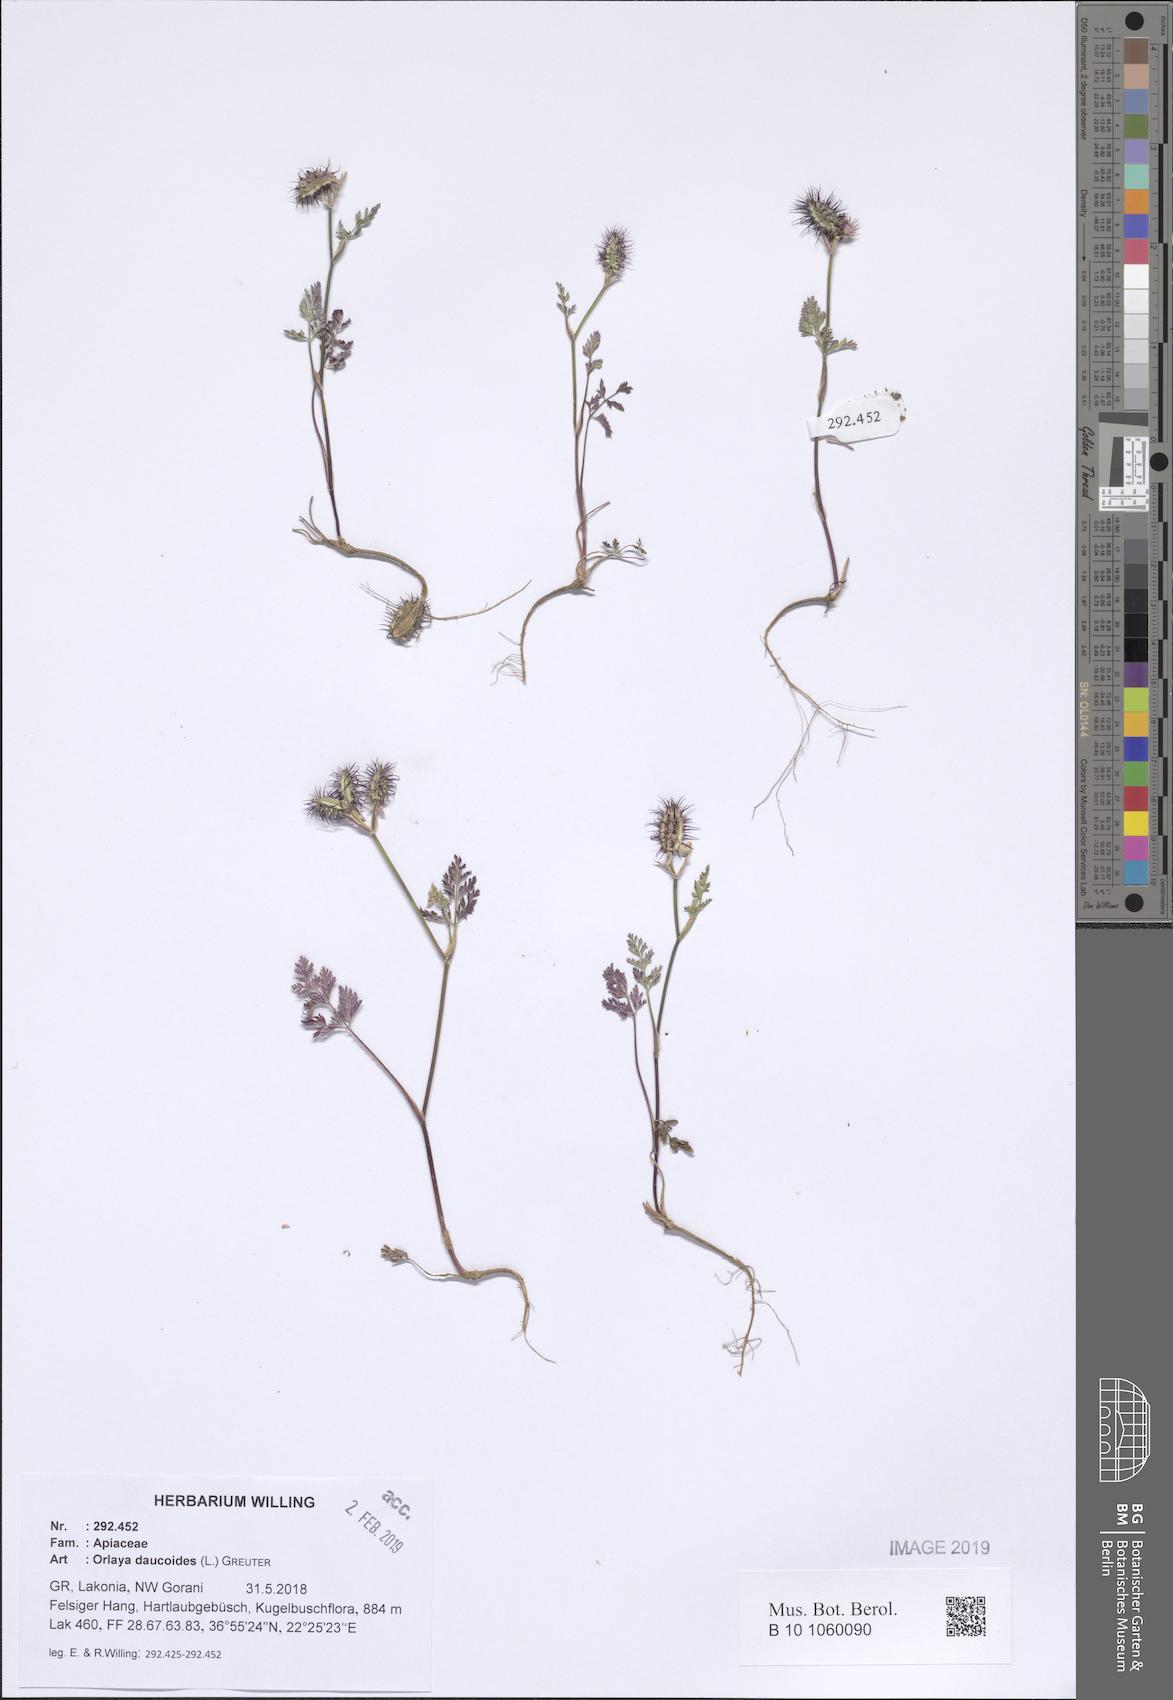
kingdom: Plantae
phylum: Tracheophyta
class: Magnoliopsida
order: Apiales
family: Apiaceae
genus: Orlaya
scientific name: Orlaya daucoides
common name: Flat-fruit orlaya
